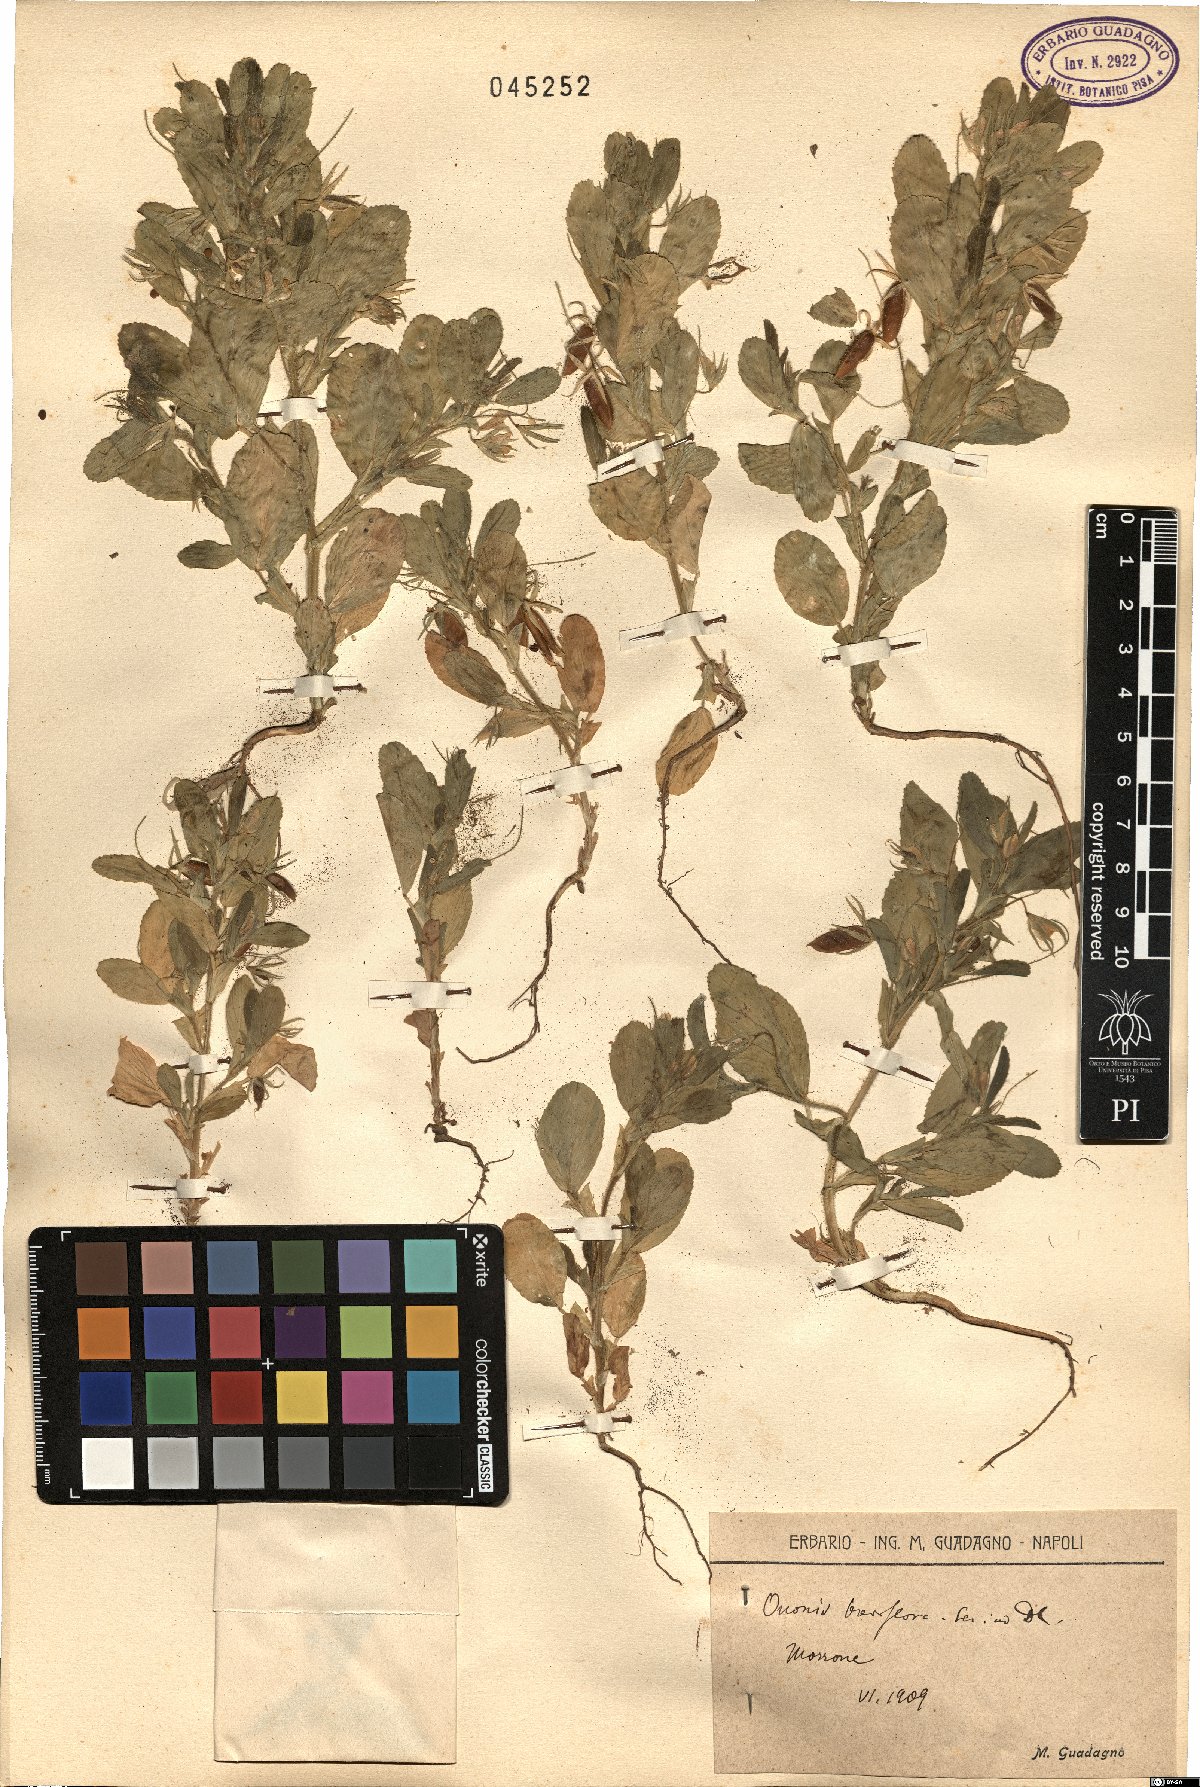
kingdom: Plantae
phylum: Tracheophyta
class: Magnoliopsida
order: Fabales
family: Fabaceae
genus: Ononis
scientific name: Ononis viscosa
